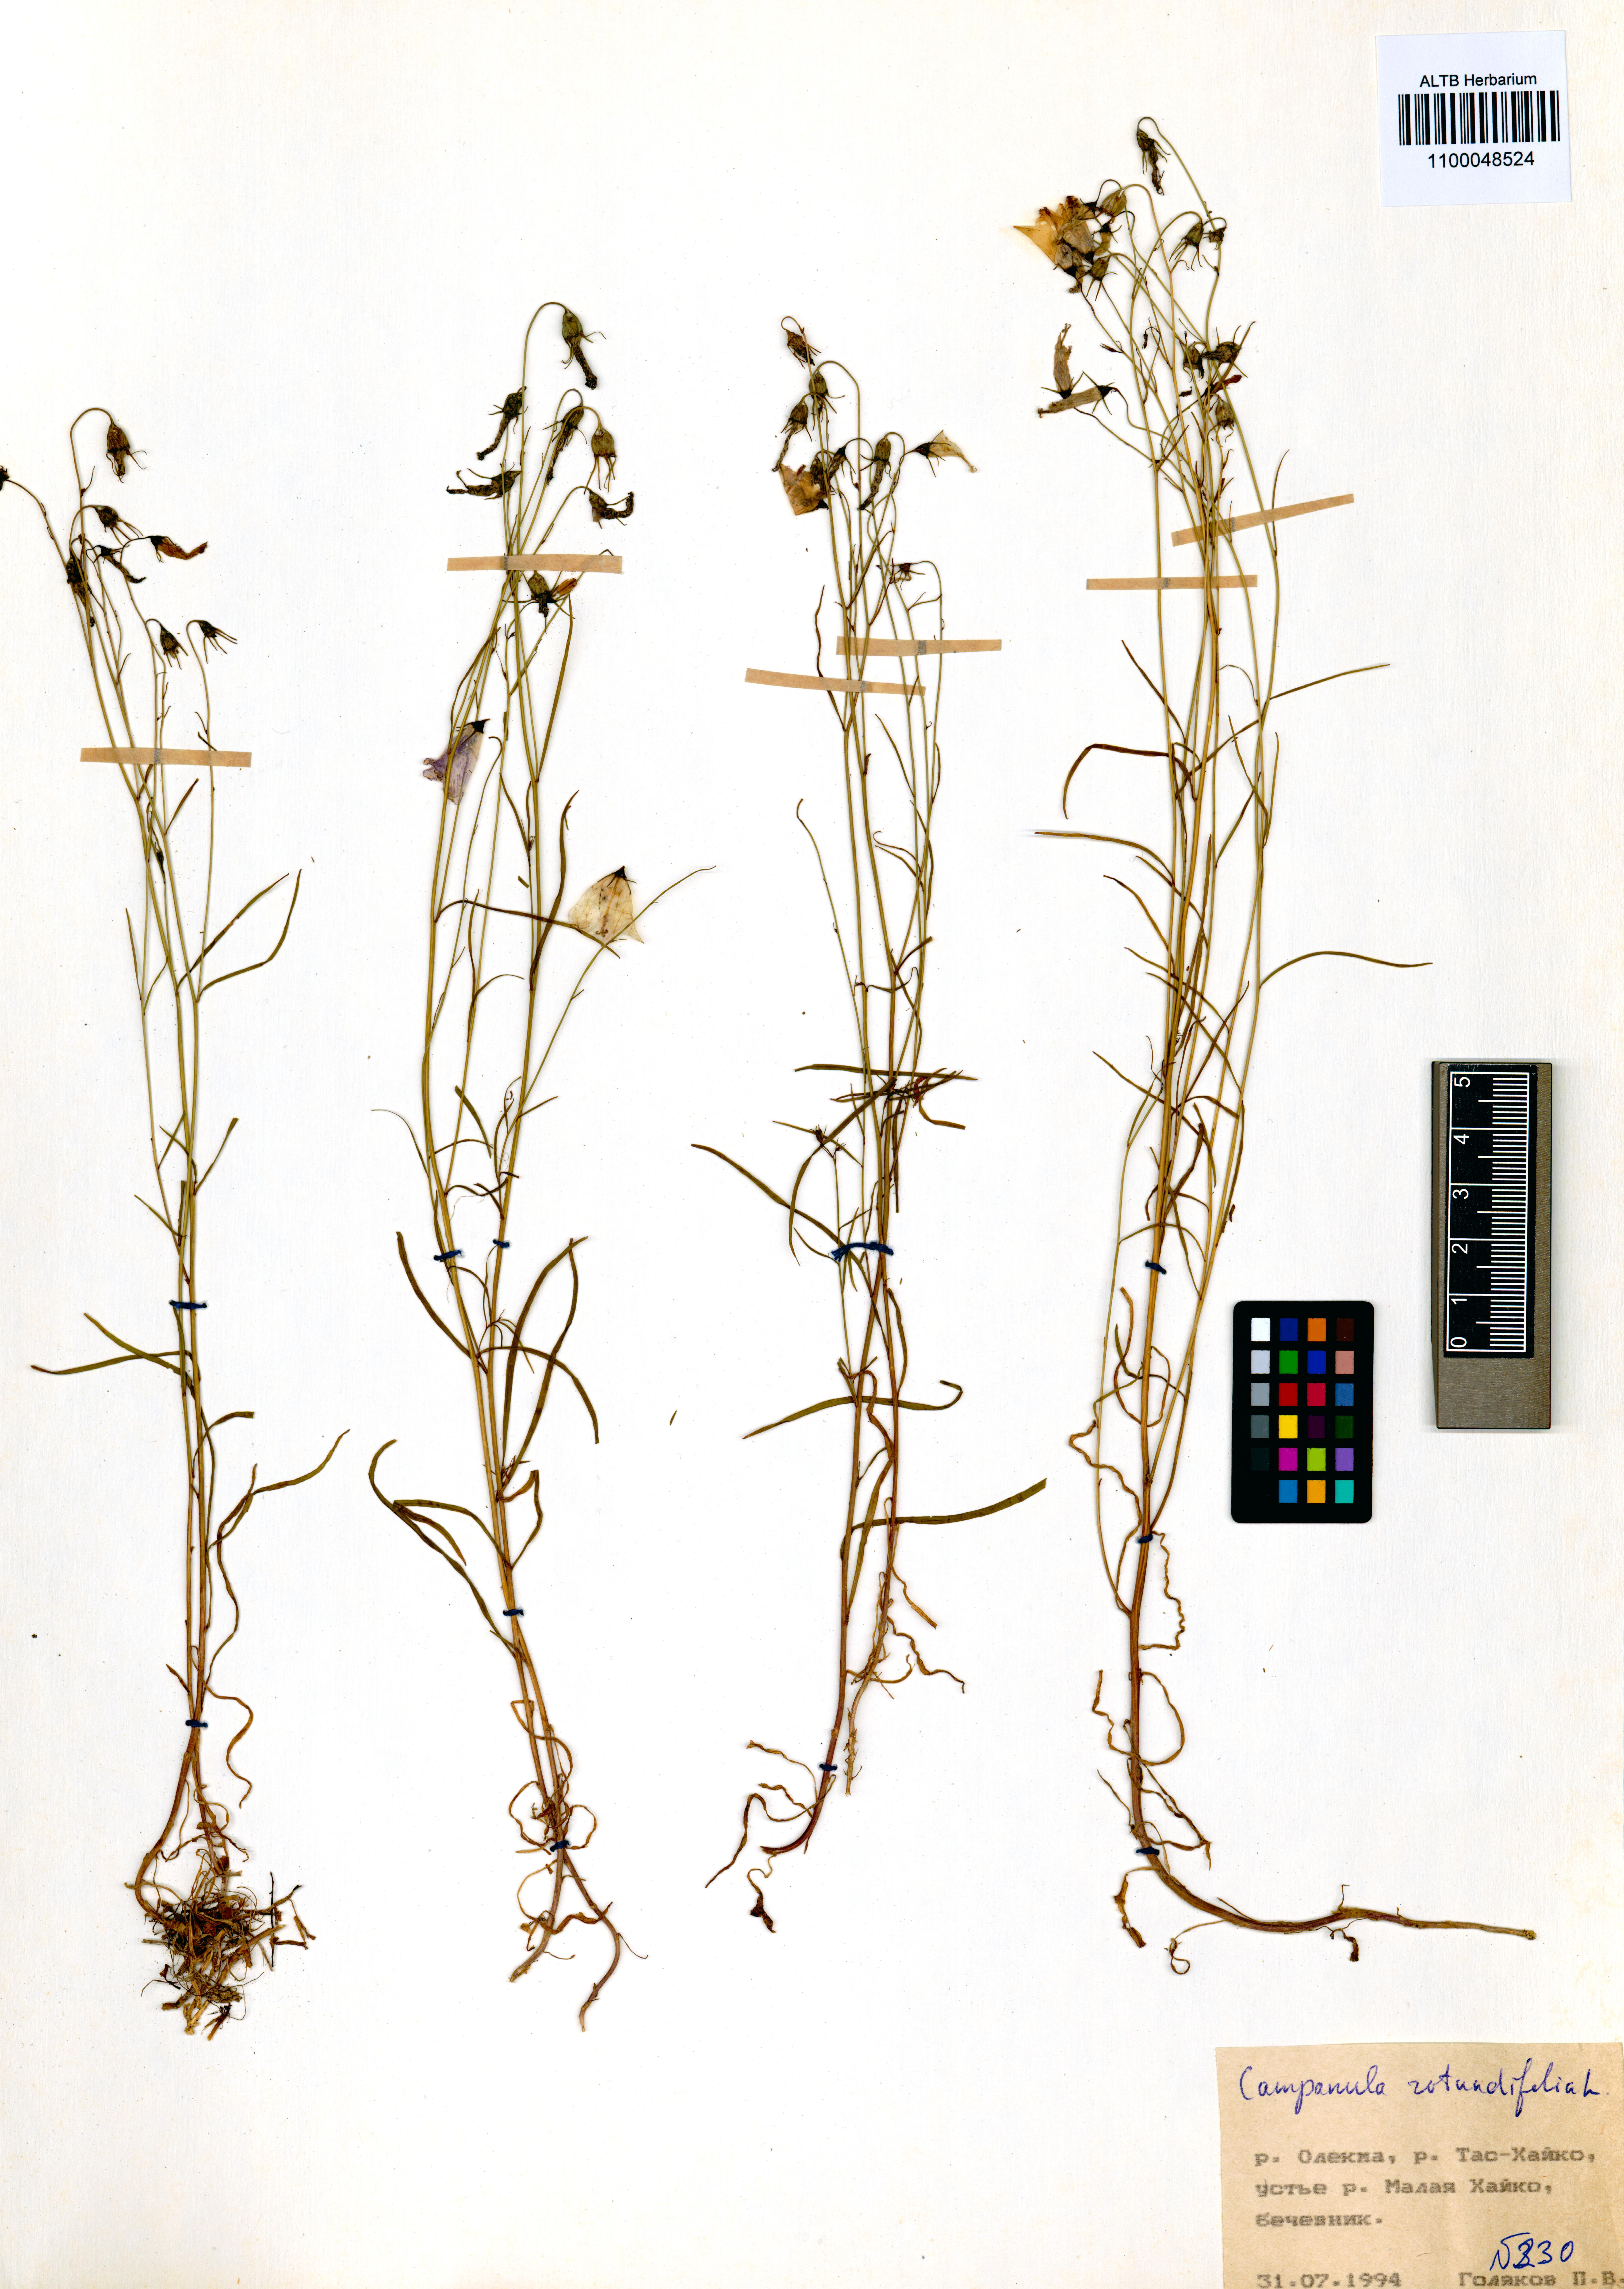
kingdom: Plantae
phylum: Tracheophyta
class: Magnoliopsida
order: Asterales
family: Campanulaceae
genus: Campanula
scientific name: Campanula rotundifolia
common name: Harebell
